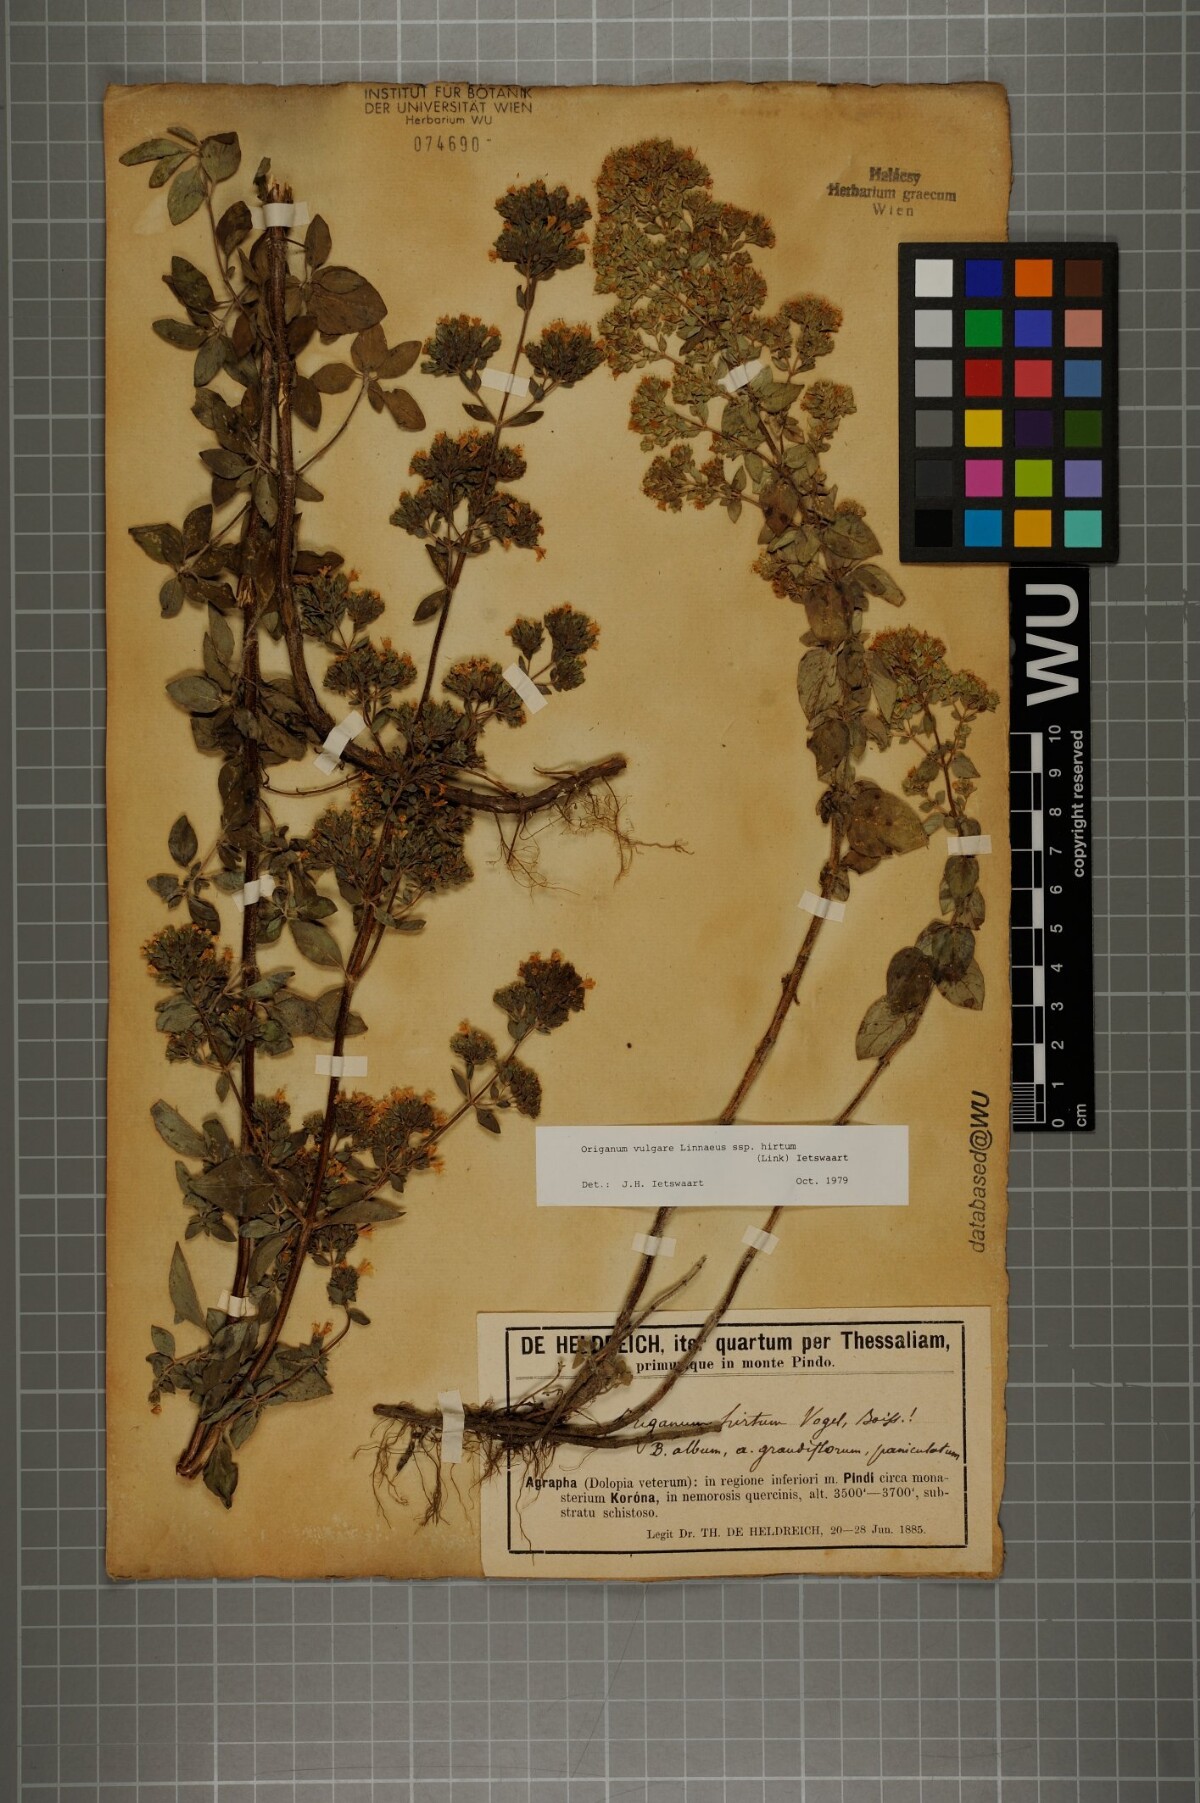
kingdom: Plantae
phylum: Tracheophyta
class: Magnoliopsida
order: Lamiales
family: Lamiaceae
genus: Origanum
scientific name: Origanum vulgare
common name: Wild marjoram
